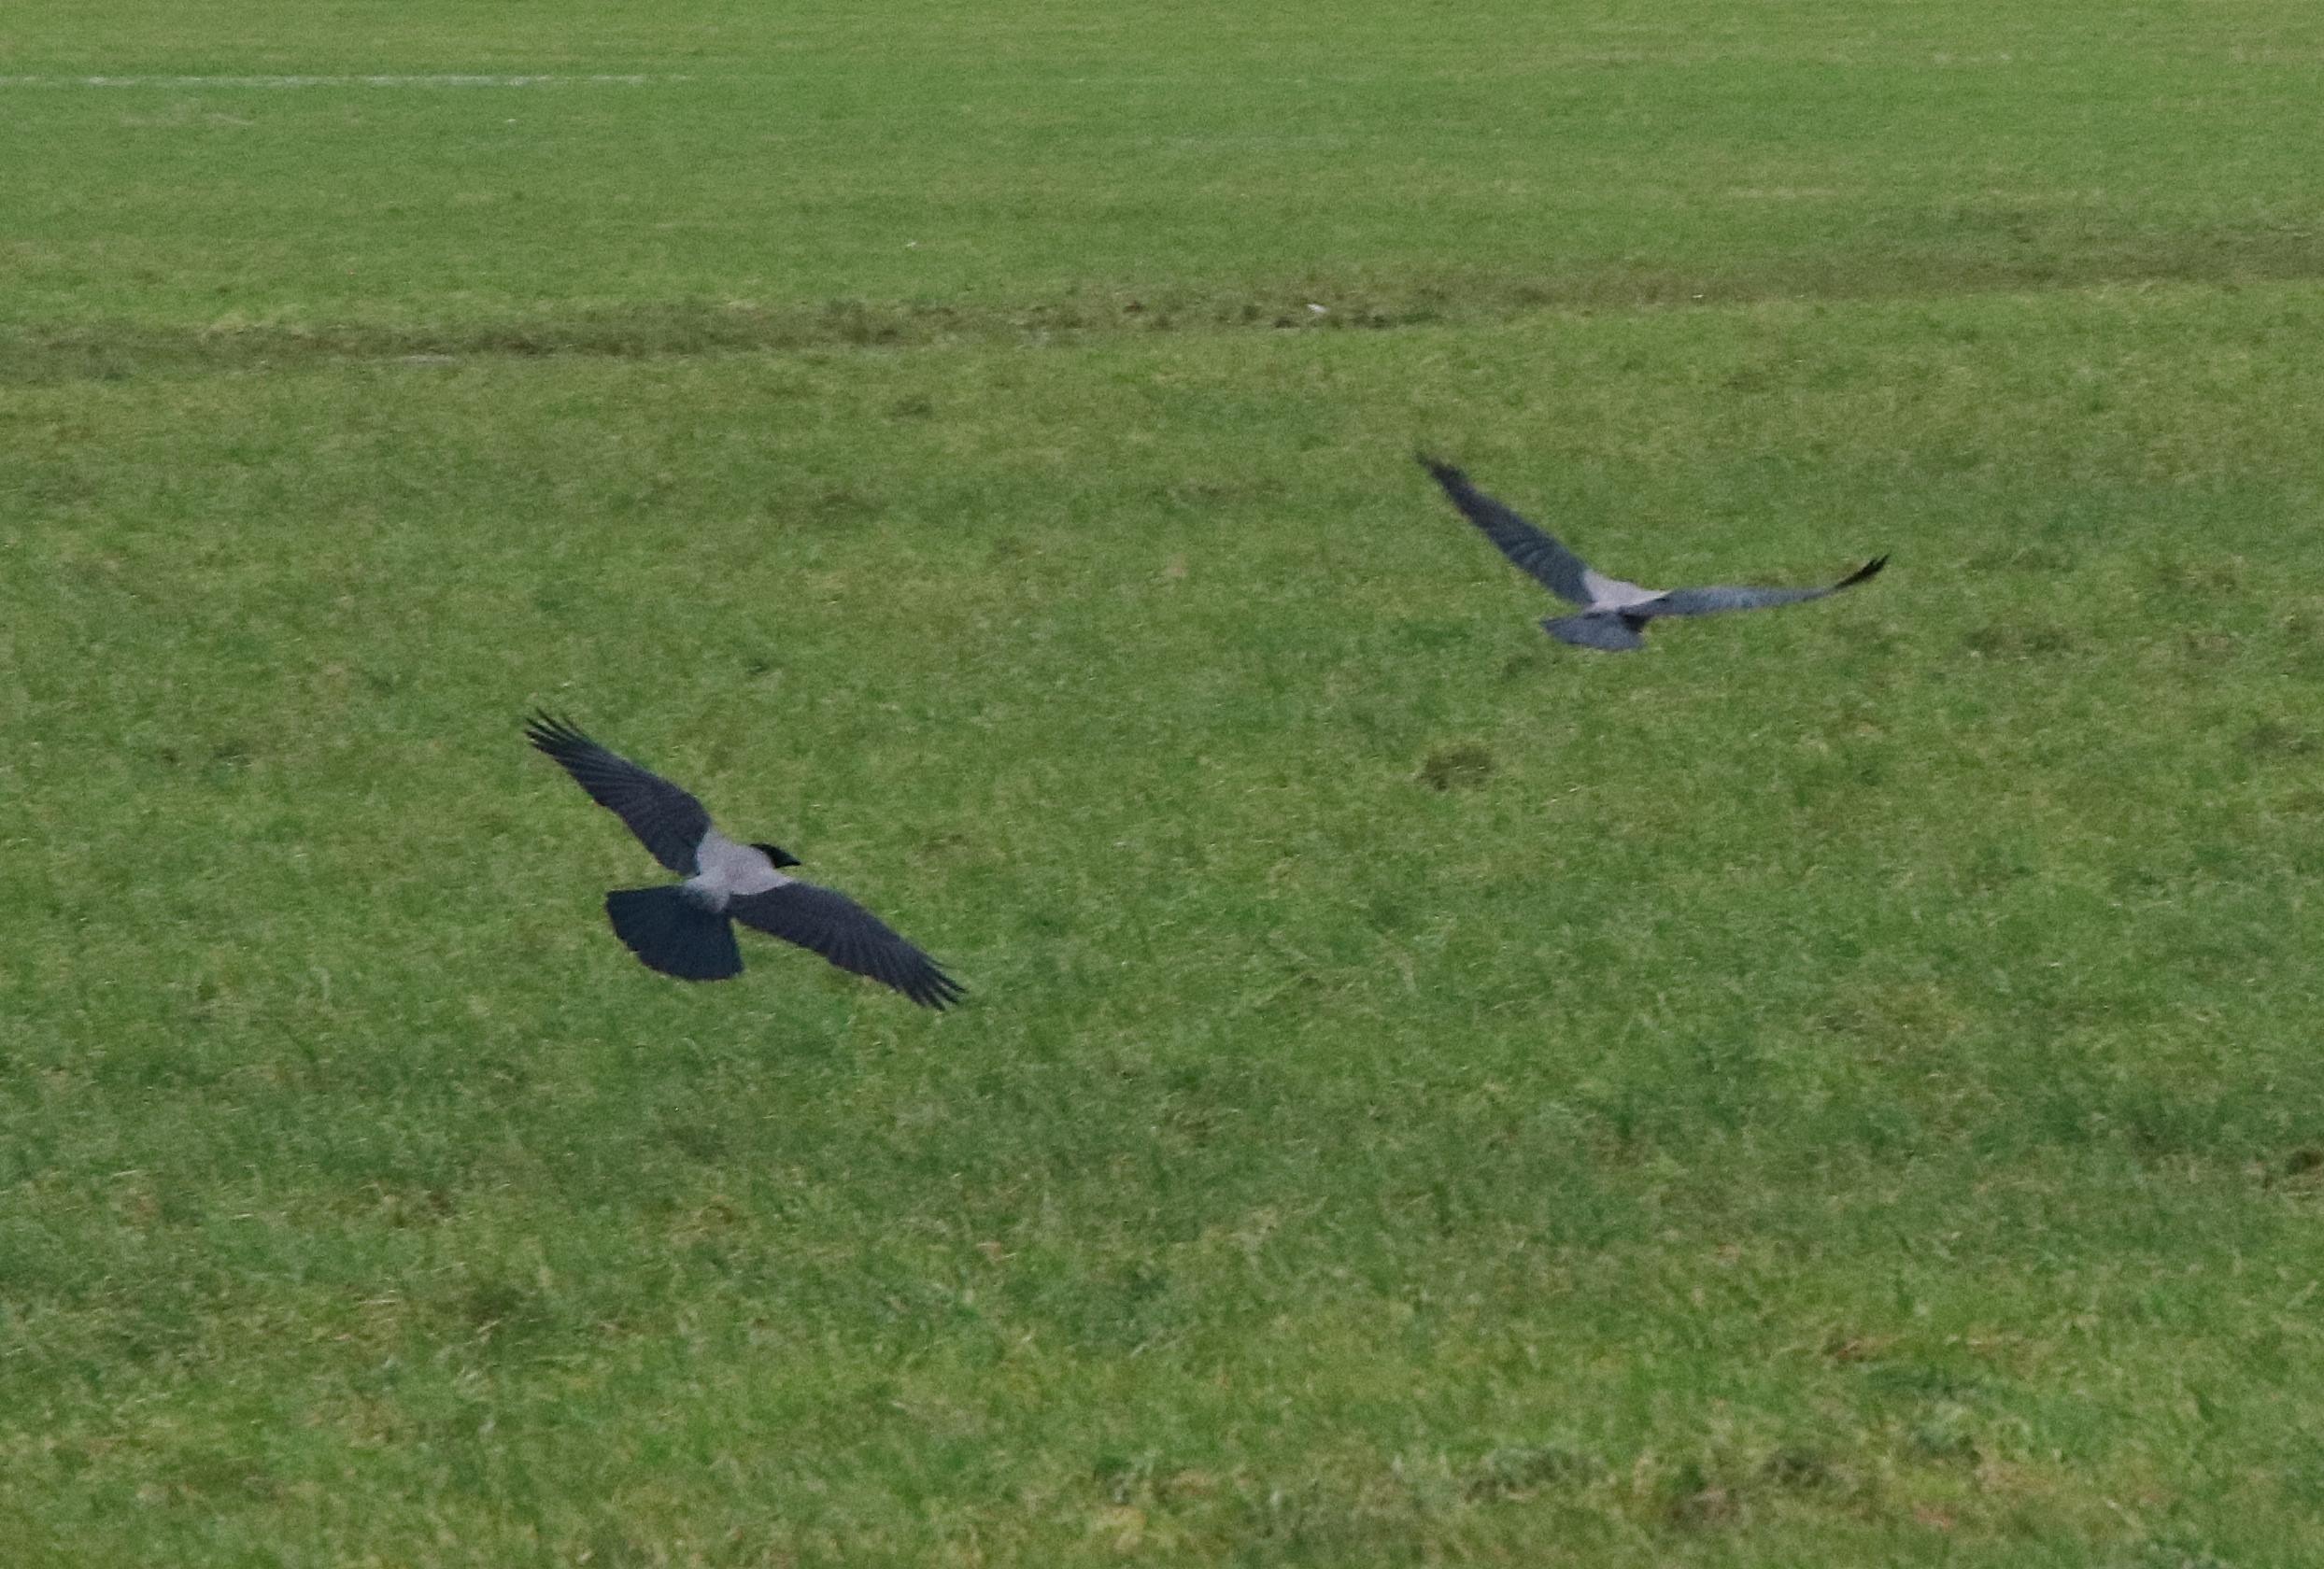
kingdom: Animalia
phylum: Chordata
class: Aves
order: Passeriformes
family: Corvidae
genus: Corvus
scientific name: Corvus cornix
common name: Gråkrage
